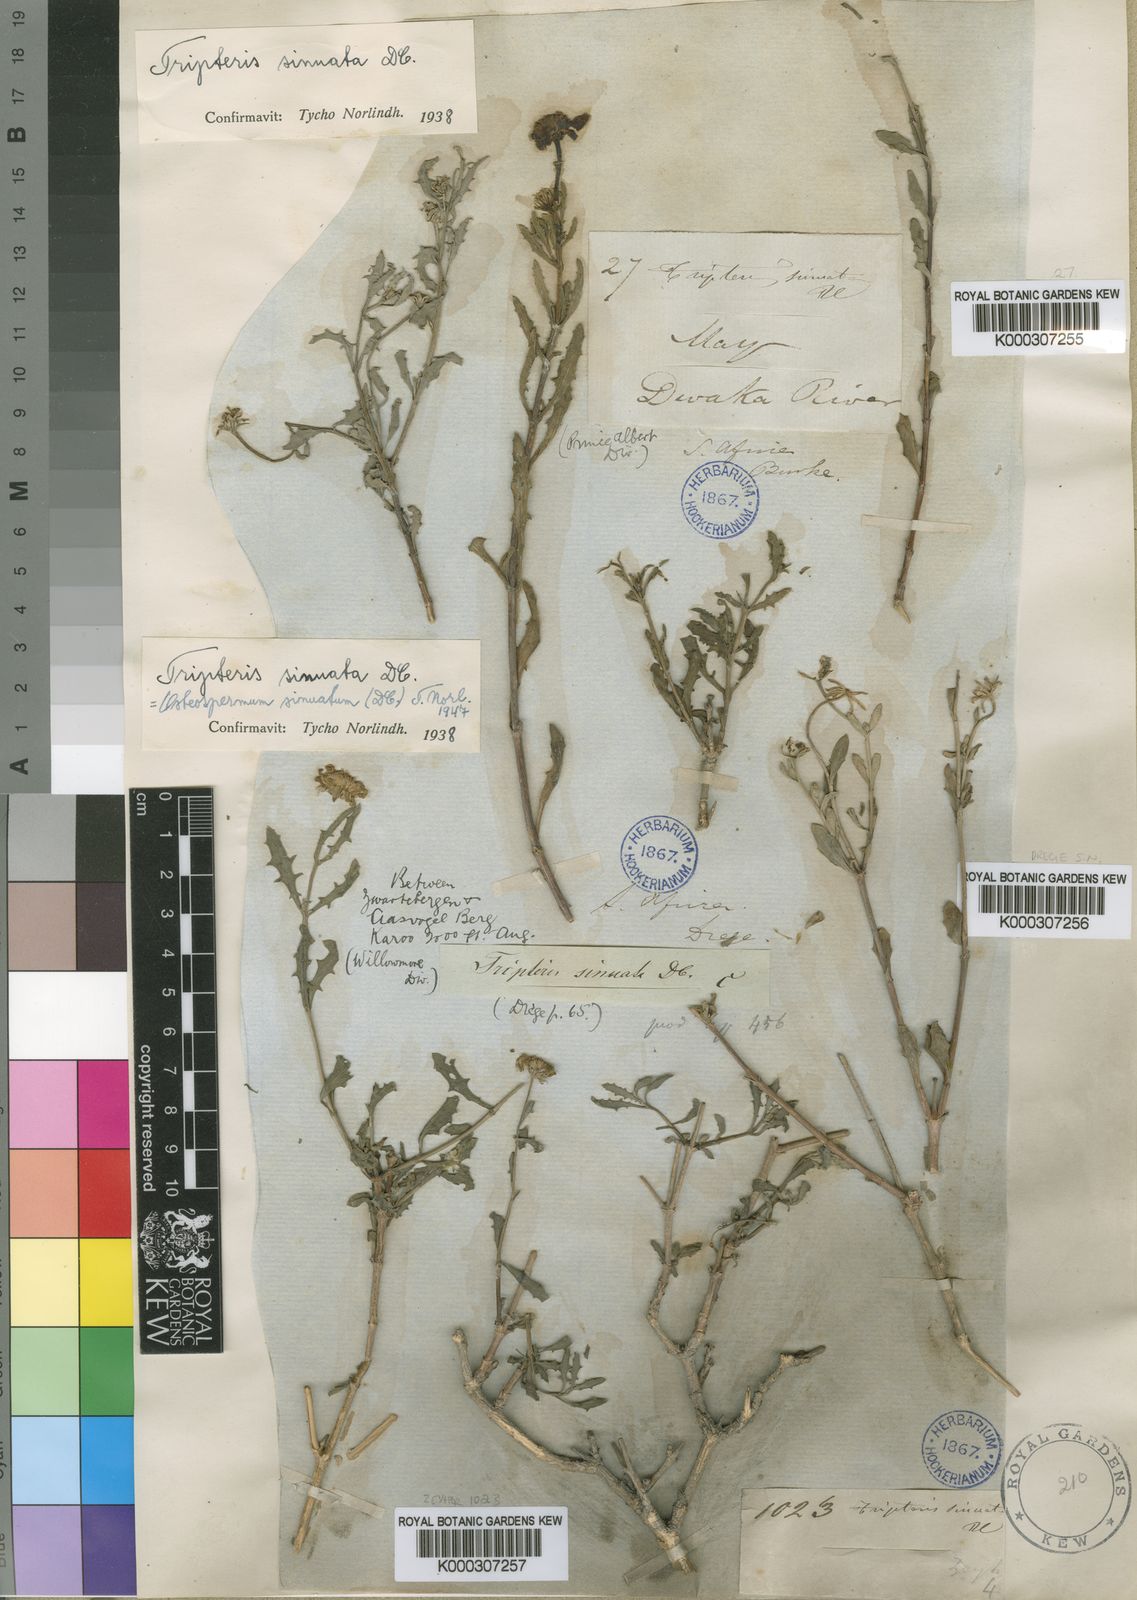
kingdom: Plantae
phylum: Tracheophyta
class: Magnoliopsida
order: Asterales
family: Asteraceae
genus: Osteospermum
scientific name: Osteospermum sinuatum
